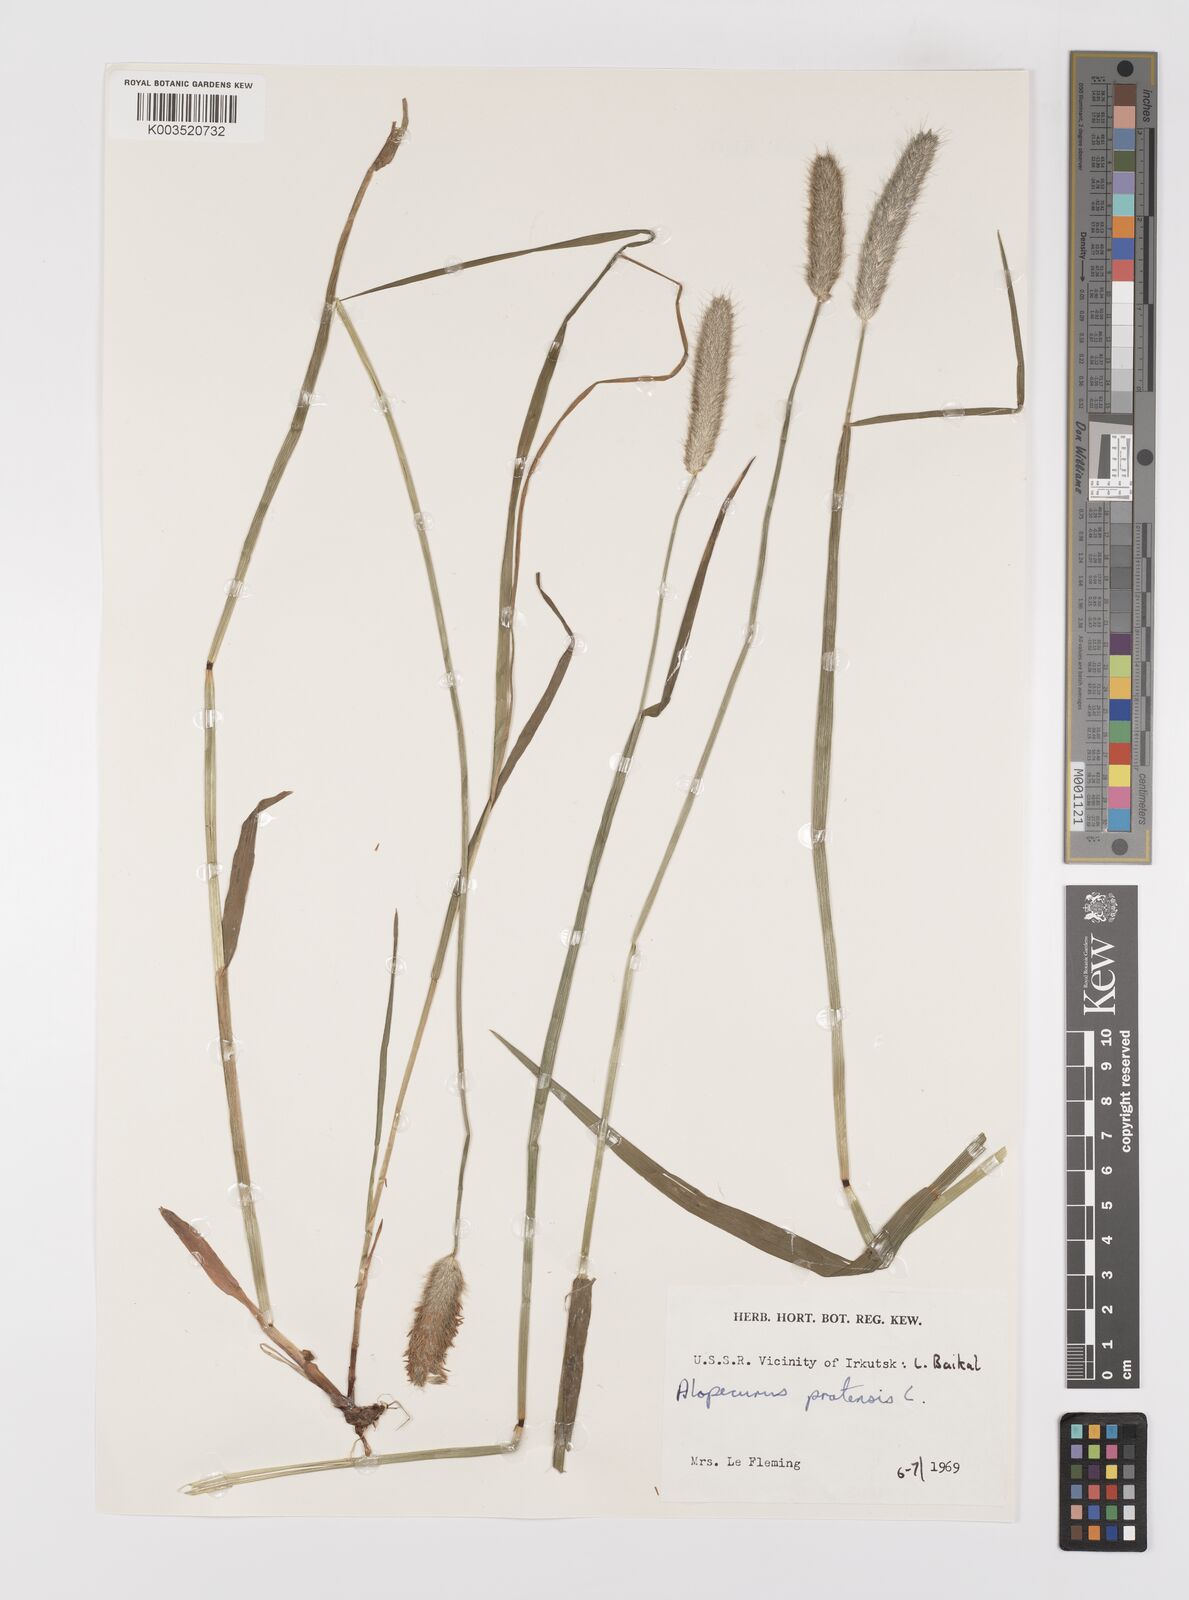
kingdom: Plantae
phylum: Tracheophyta
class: Liliopsida
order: Poales
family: Poaceae
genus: Alopecurus
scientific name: Alopecurus pratensis
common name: Meadow foxtail
